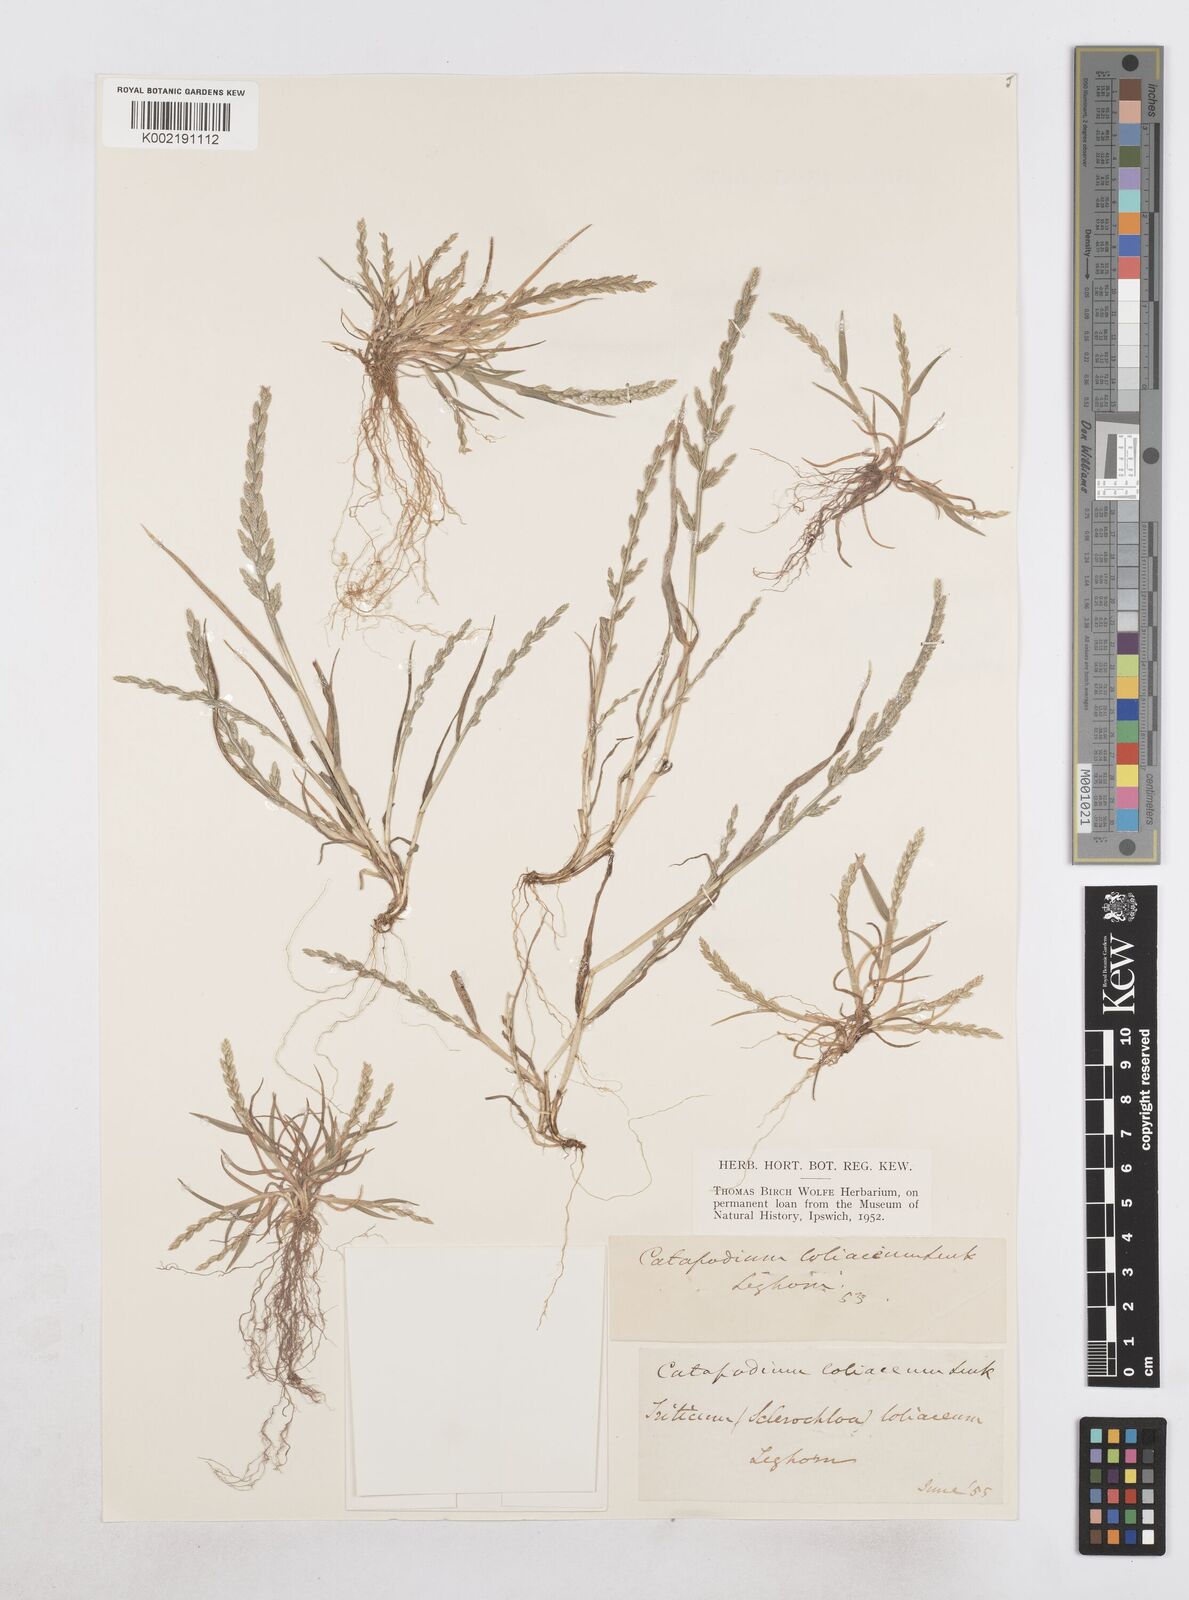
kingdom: Plantae
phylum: Tracheophyta
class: Liliopsida
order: Poales
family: Poaceae
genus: Catapodium
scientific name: Catapodium marinum
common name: Sea fern-grass
